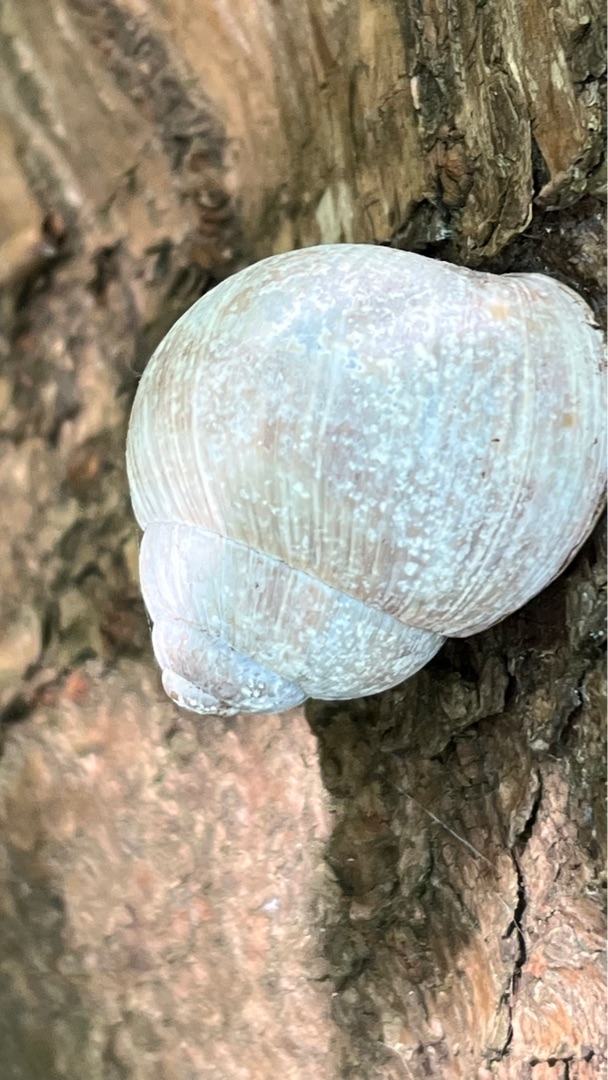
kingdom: Animalia
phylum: Mollusca
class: Gastropoda
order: Stylommatophora
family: Helicidae
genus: Helix
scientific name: Helix pomatia
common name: Vinbjergsnegl
